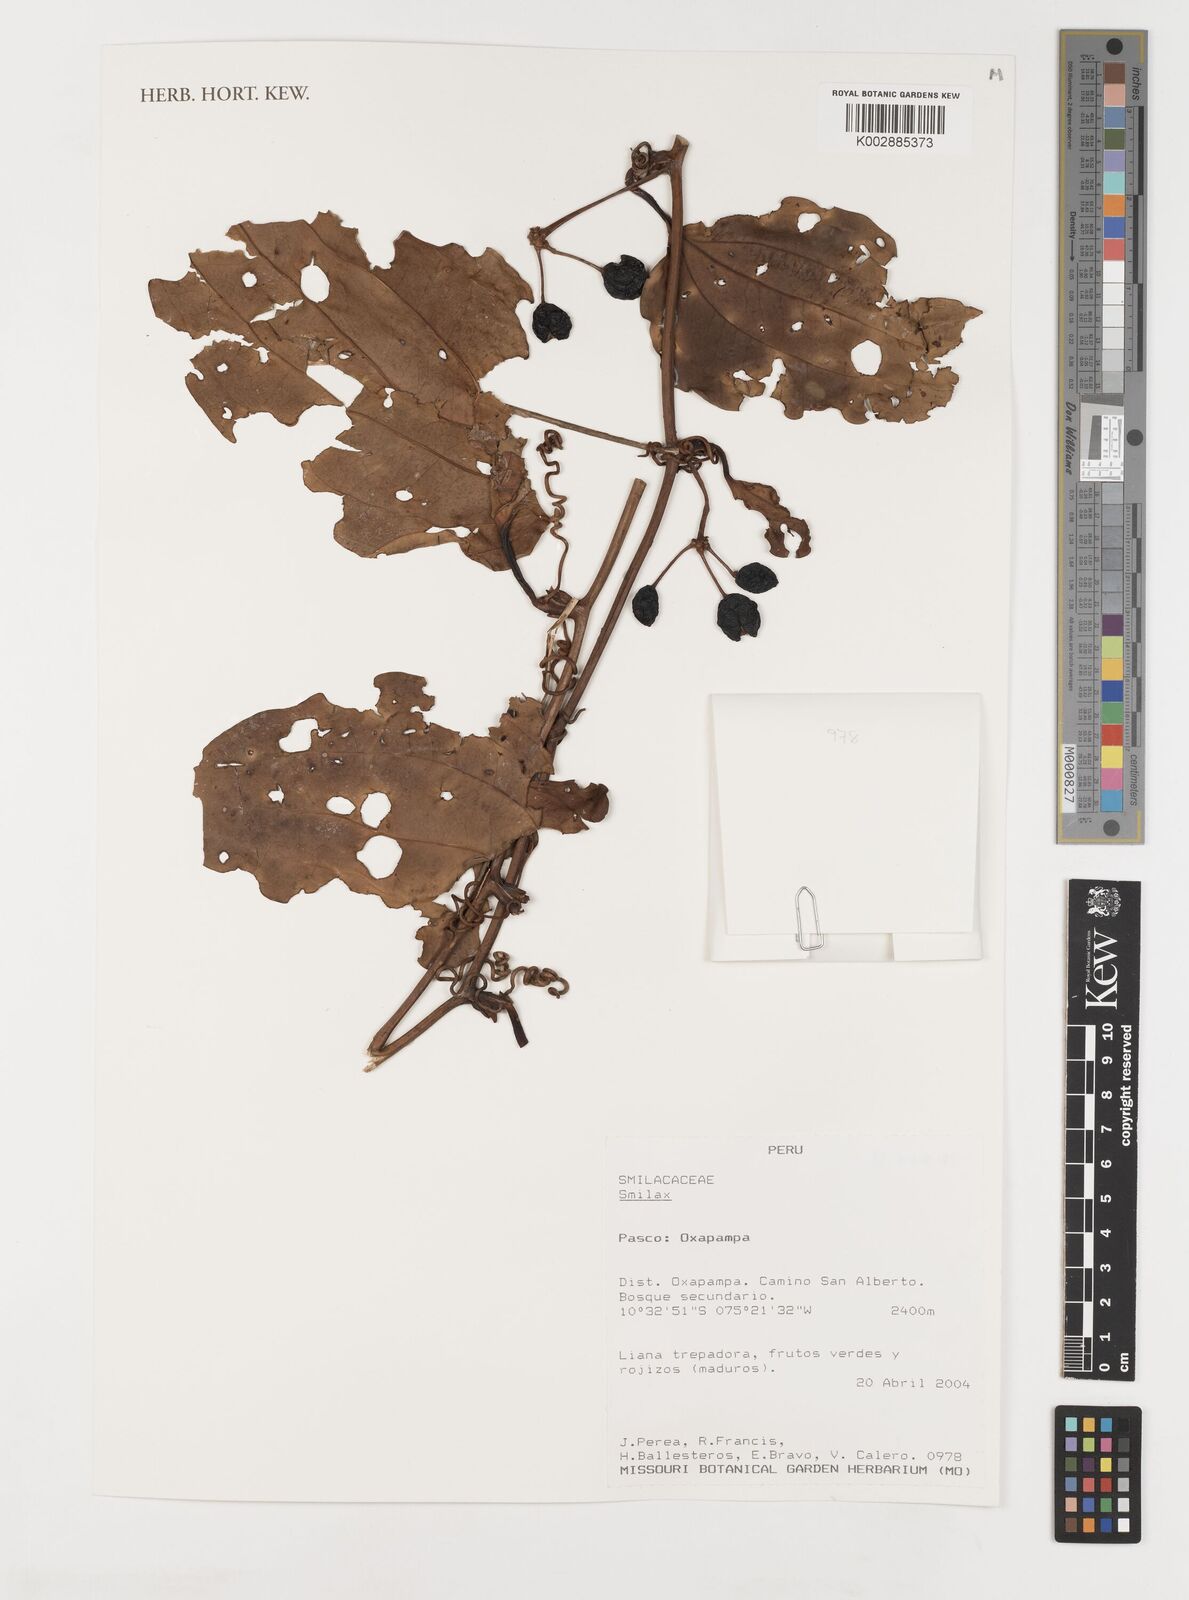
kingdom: Plantae
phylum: Tracheophyta
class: Liliopsida
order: Liliales
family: Smilacaceae
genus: Smilax
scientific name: Smilax
